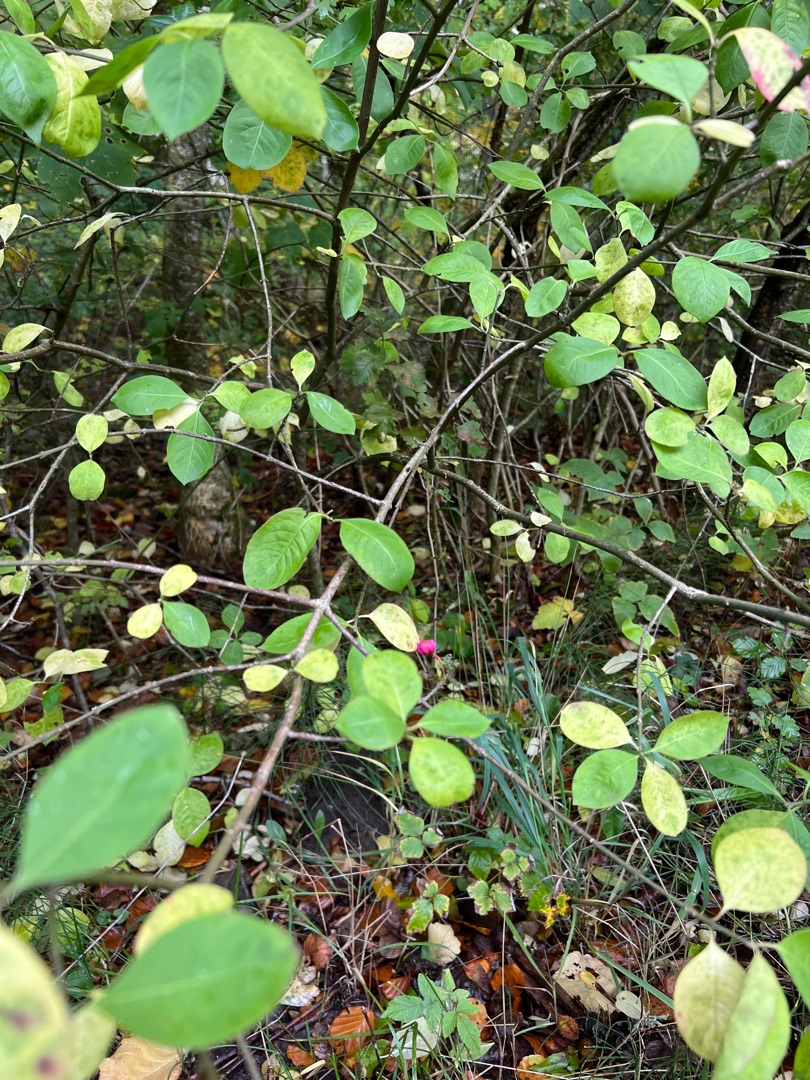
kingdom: Plantae
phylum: Tracheophyta
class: Magnoliopsida
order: Celastrales
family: Celastraceae
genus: Euonymus
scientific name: Euonymus europaeus
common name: Benved
